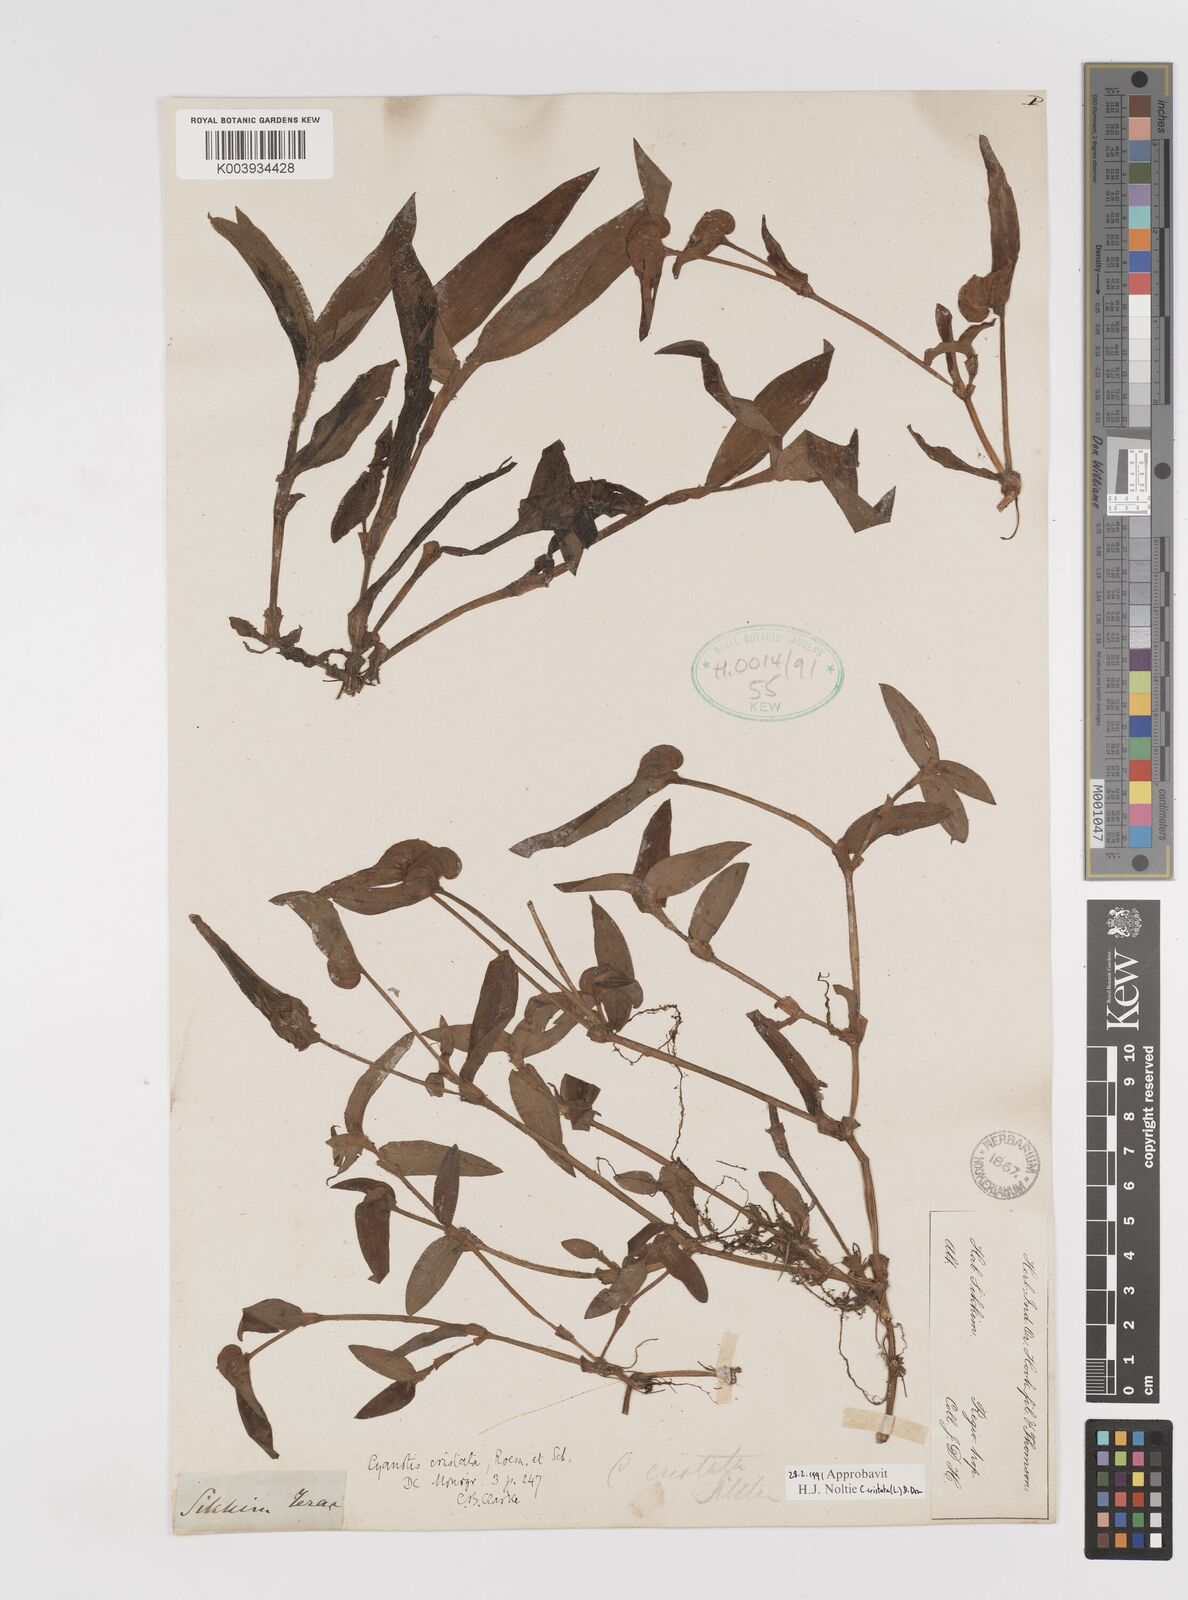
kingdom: Plantae
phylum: Tracheophyta
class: Liliopsida
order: Commelinales
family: Commelinaceae
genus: Cyanotis
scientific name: Cyanotis cristata
